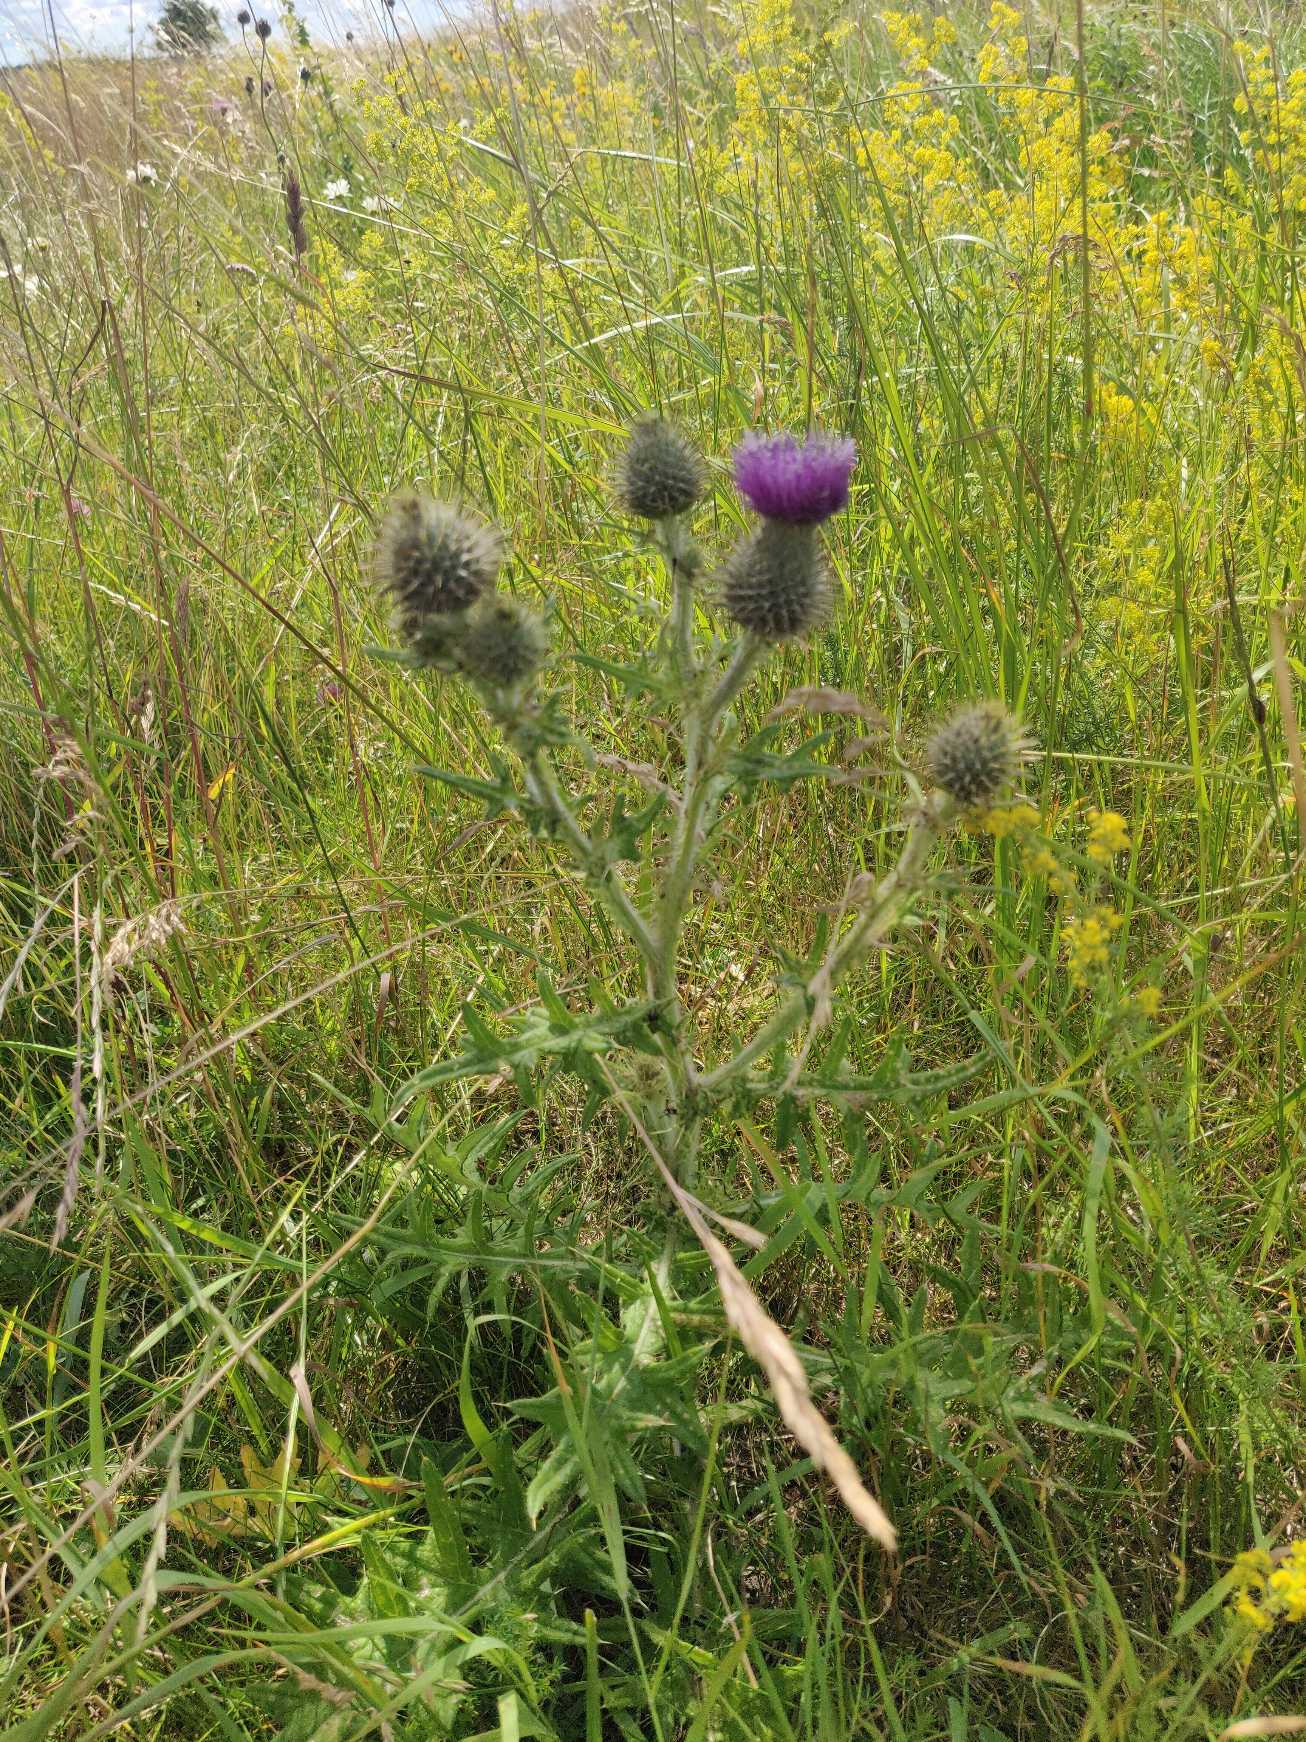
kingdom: Plantae
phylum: Tracheophyta
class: Magnoliopsida
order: Asterales
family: Asteraceae
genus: Cirsium
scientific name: Cirsium vulgare
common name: Horse-tidsel
